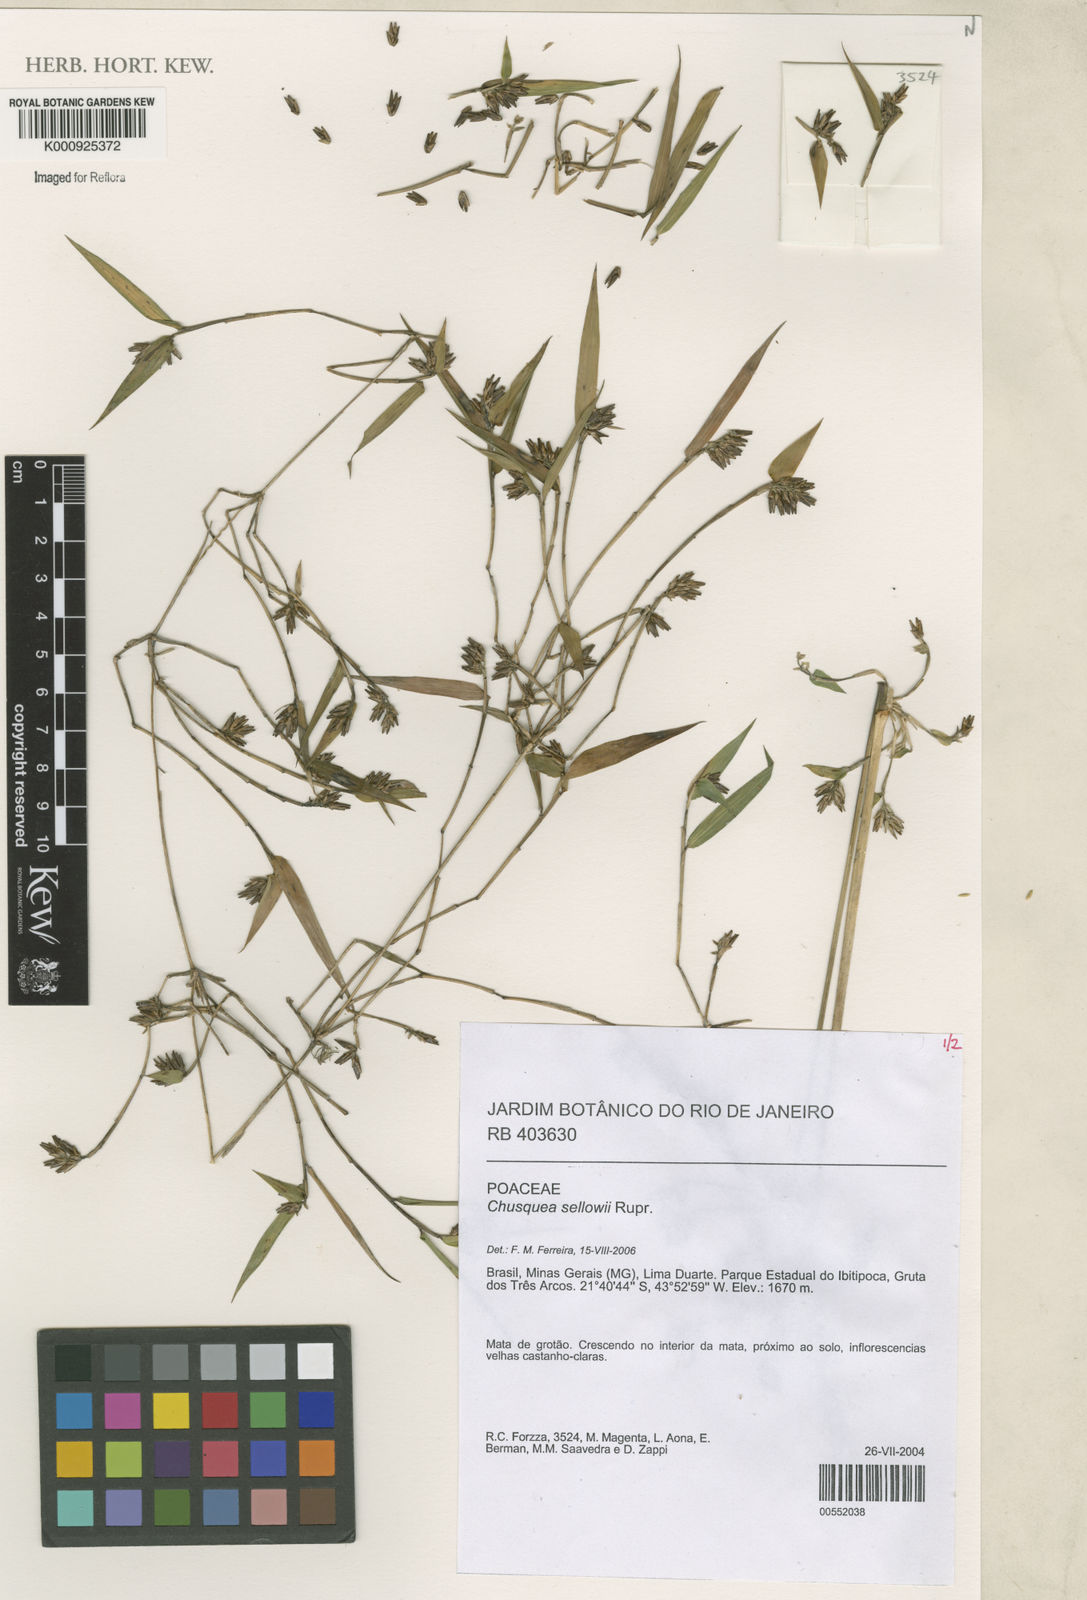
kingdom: Plantae
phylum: Tracheophyta
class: Liliopsida
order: Poales
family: Poaceae
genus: Chusquea
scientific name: Chusquea sellowii
